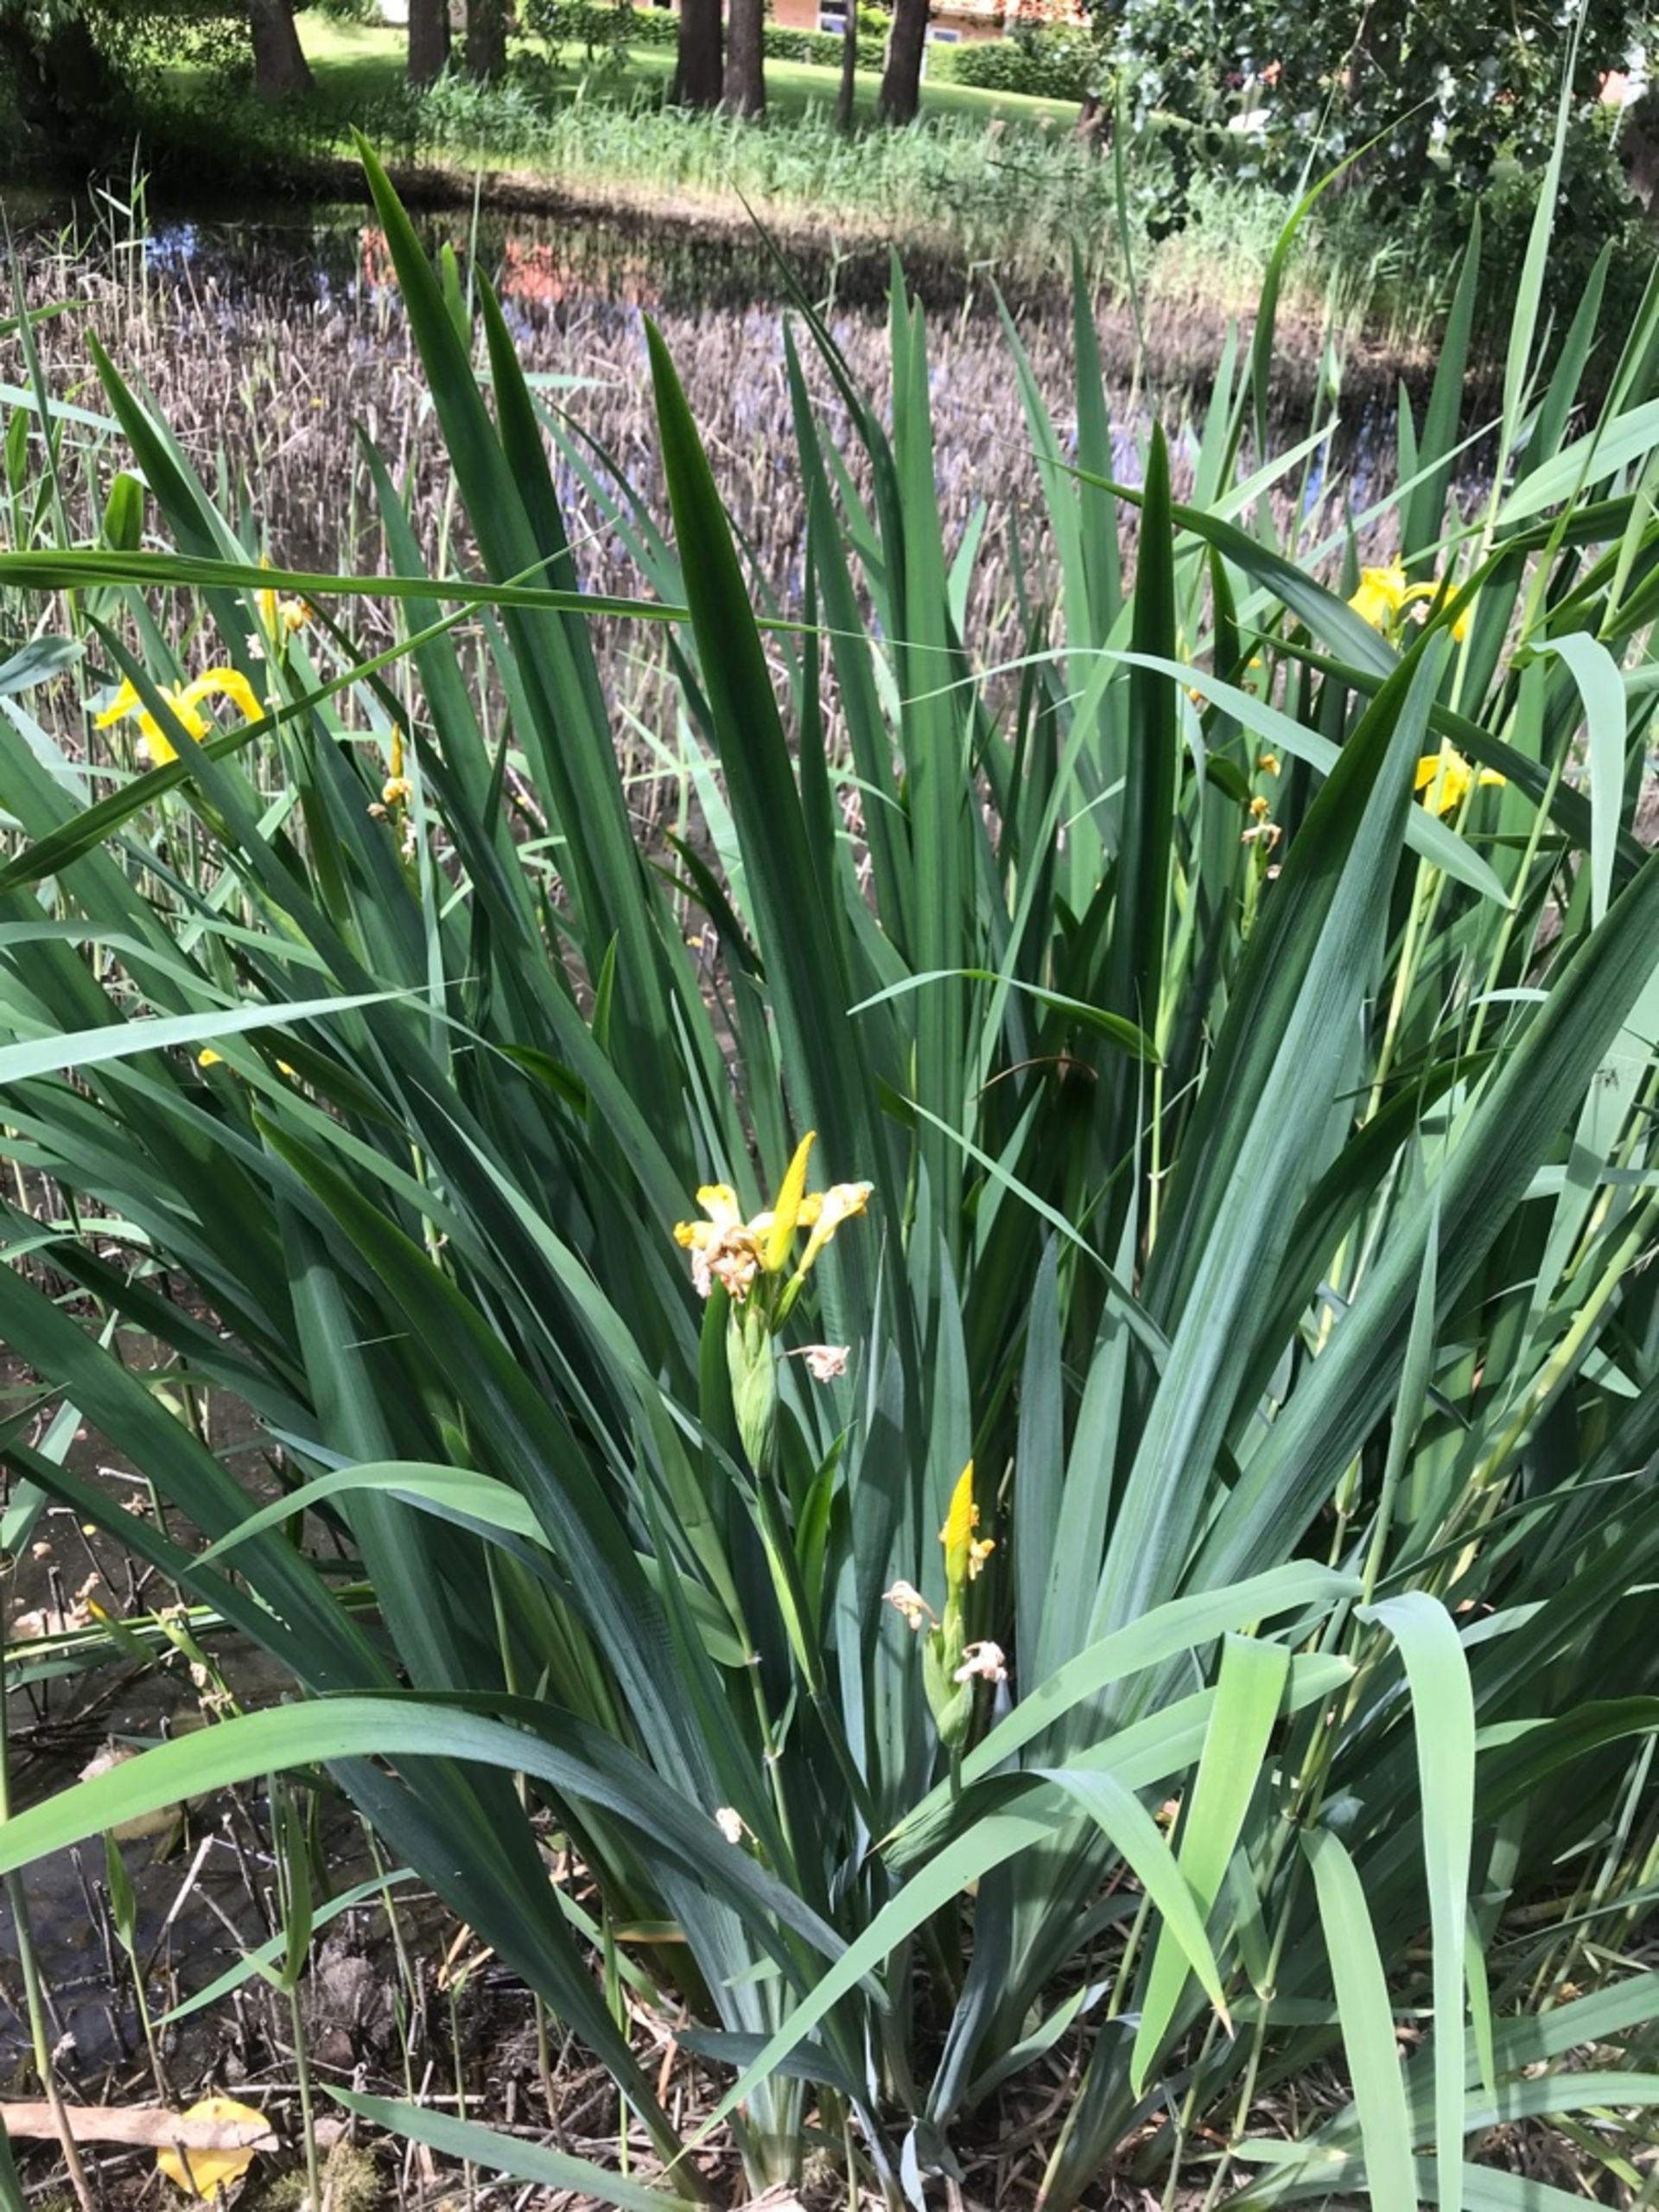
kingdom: Plantae
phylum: Tracheophyta
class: Liliopsida
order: Asparagales
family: Iridaceae
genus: Iris
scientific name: Iris pseudacorus
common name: Gul iris
